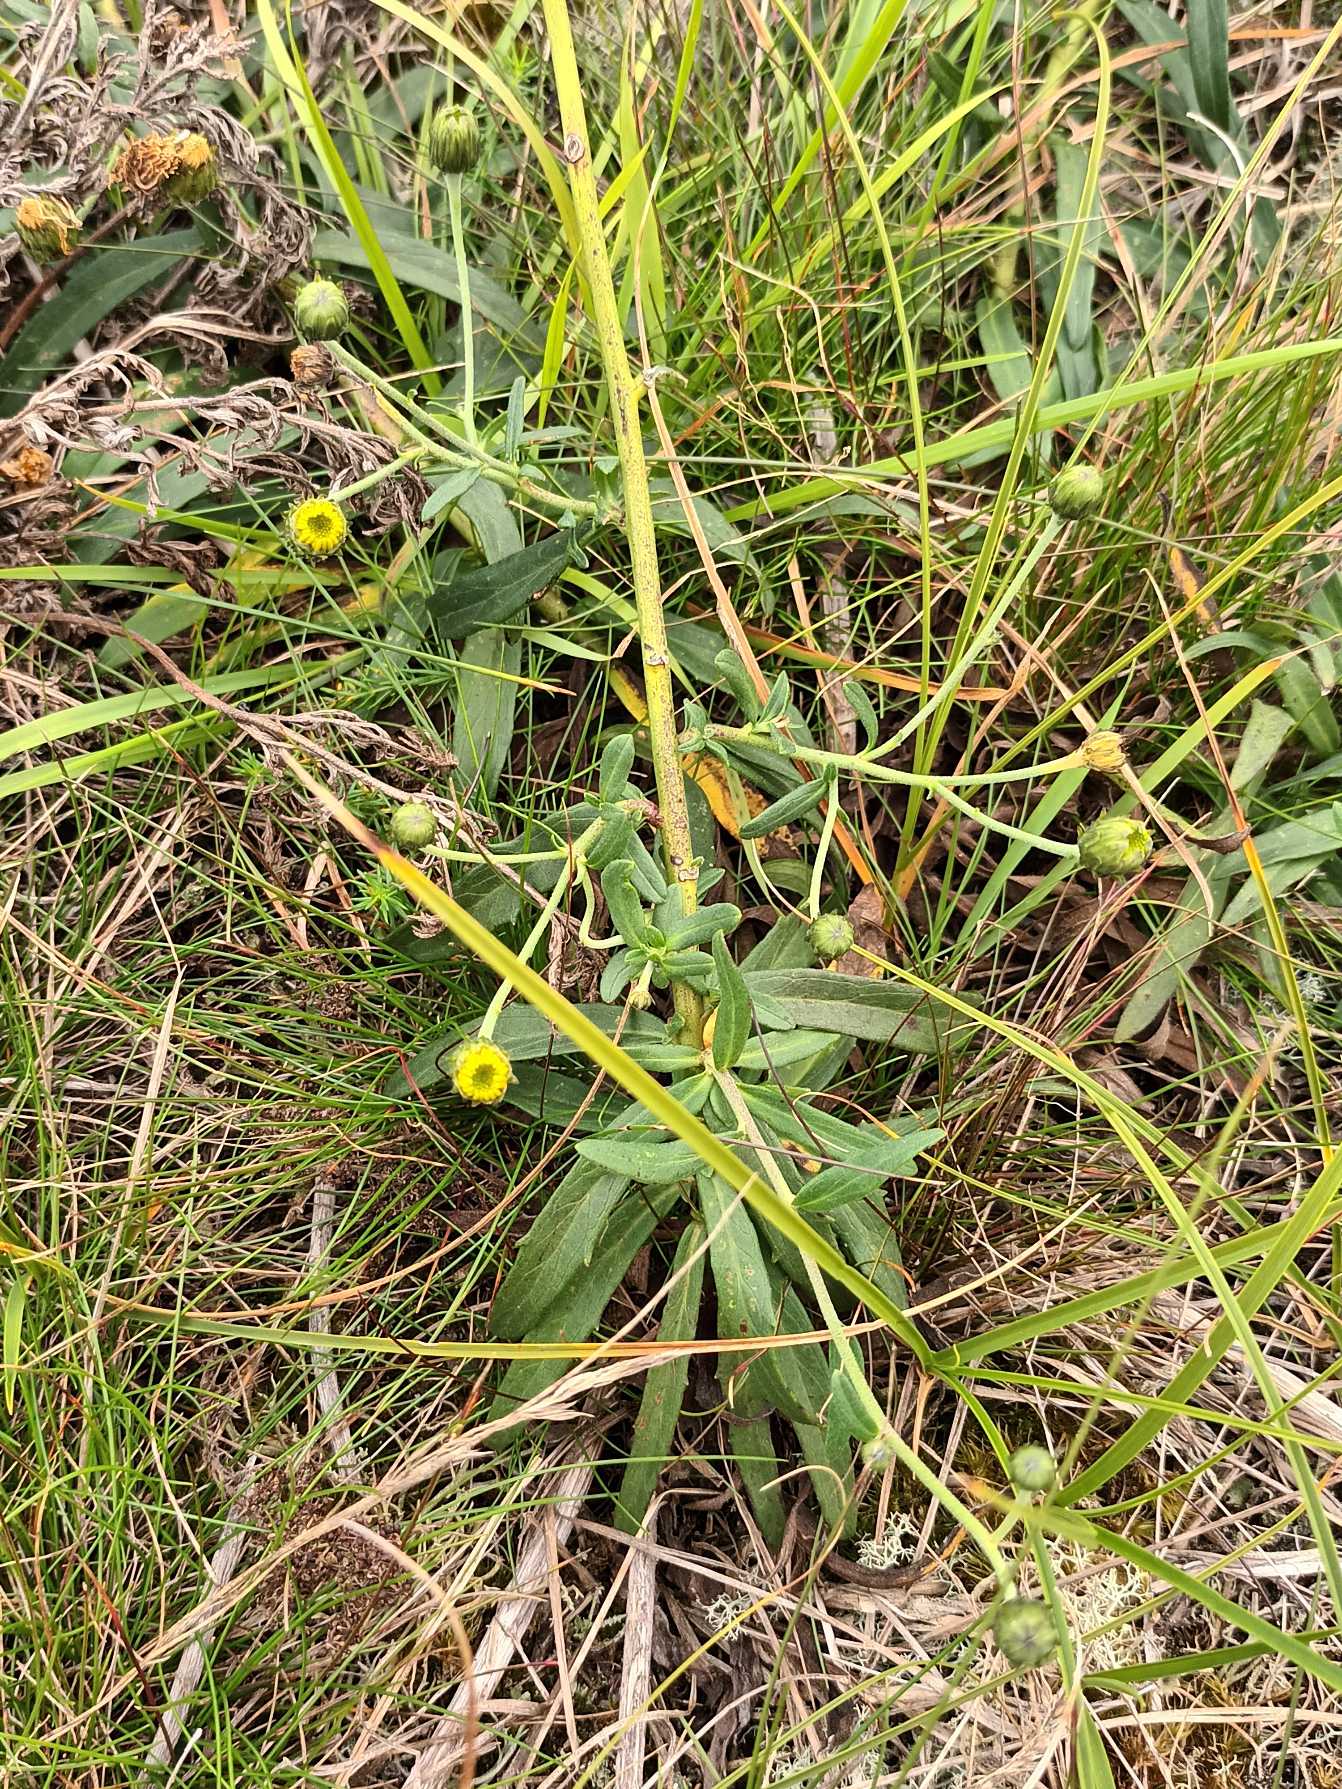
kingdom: Plantae
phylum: Tracheophyta
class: Magnoliopsida
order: Asterales
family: Asteraceae
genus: Hieracium
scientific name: Hieracium umbellatum
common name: Smalbladet høgeurt
